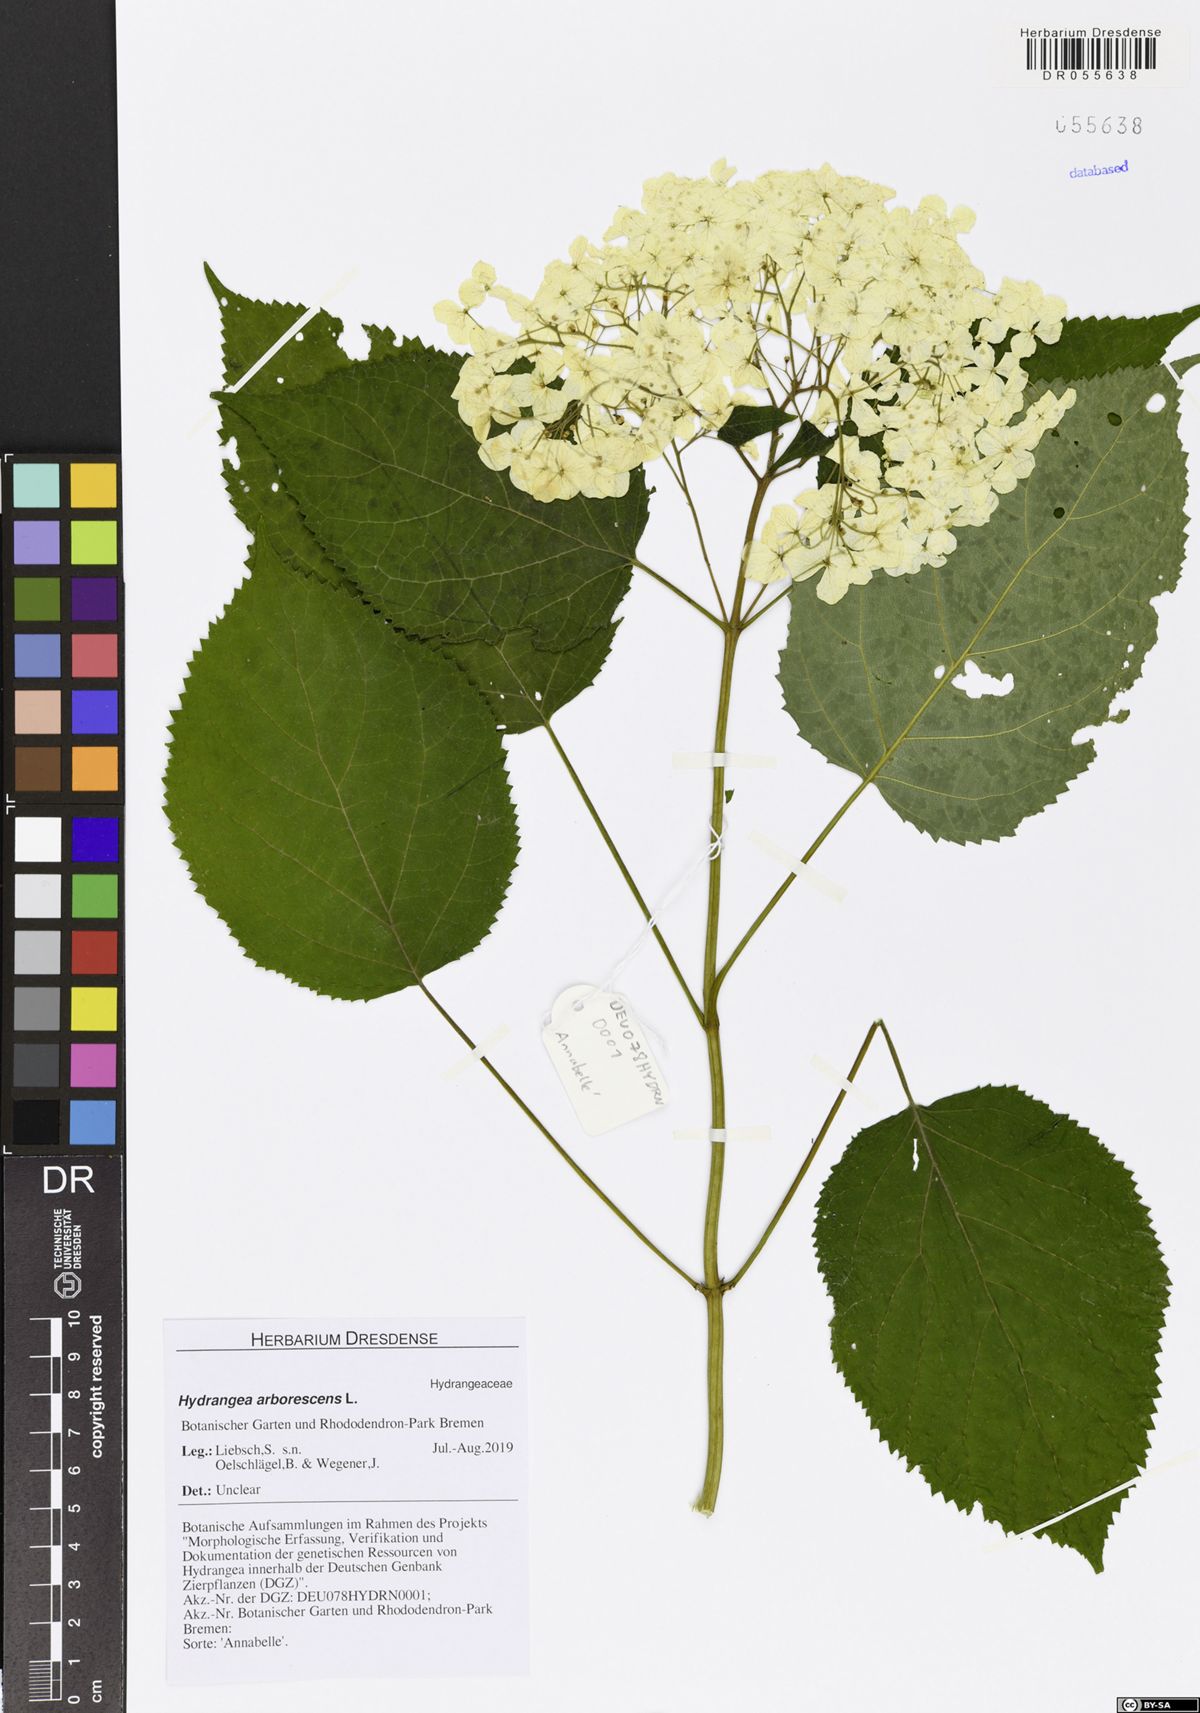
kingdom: Plantae
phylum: Tracheophyta
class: Magnoliopsida
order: Cornales
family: Hydrangeaceae
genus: Hydrangea
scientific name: Hydrangea arborescens
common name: Sevenbark
